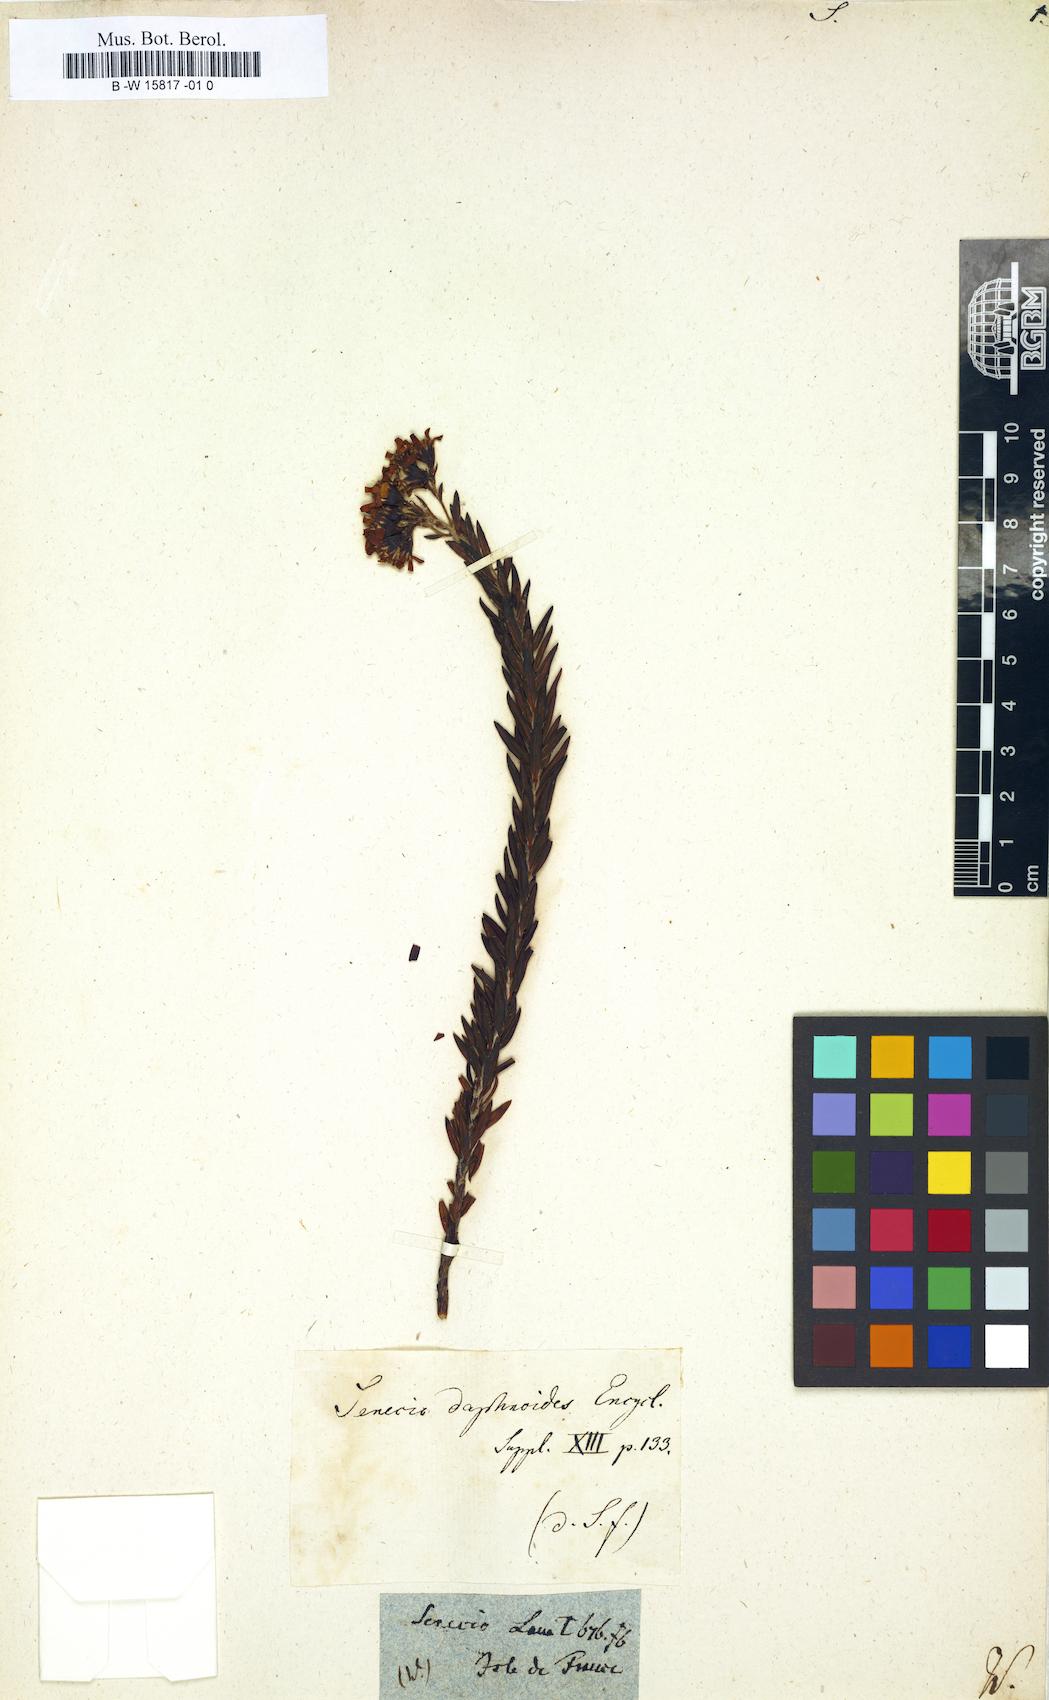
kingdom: Plantae
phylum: Tracheophyta
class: Magnoliopsida
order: Asterales
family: Asteraceae
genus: Hubertia
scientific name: Hubertia tomentosa
